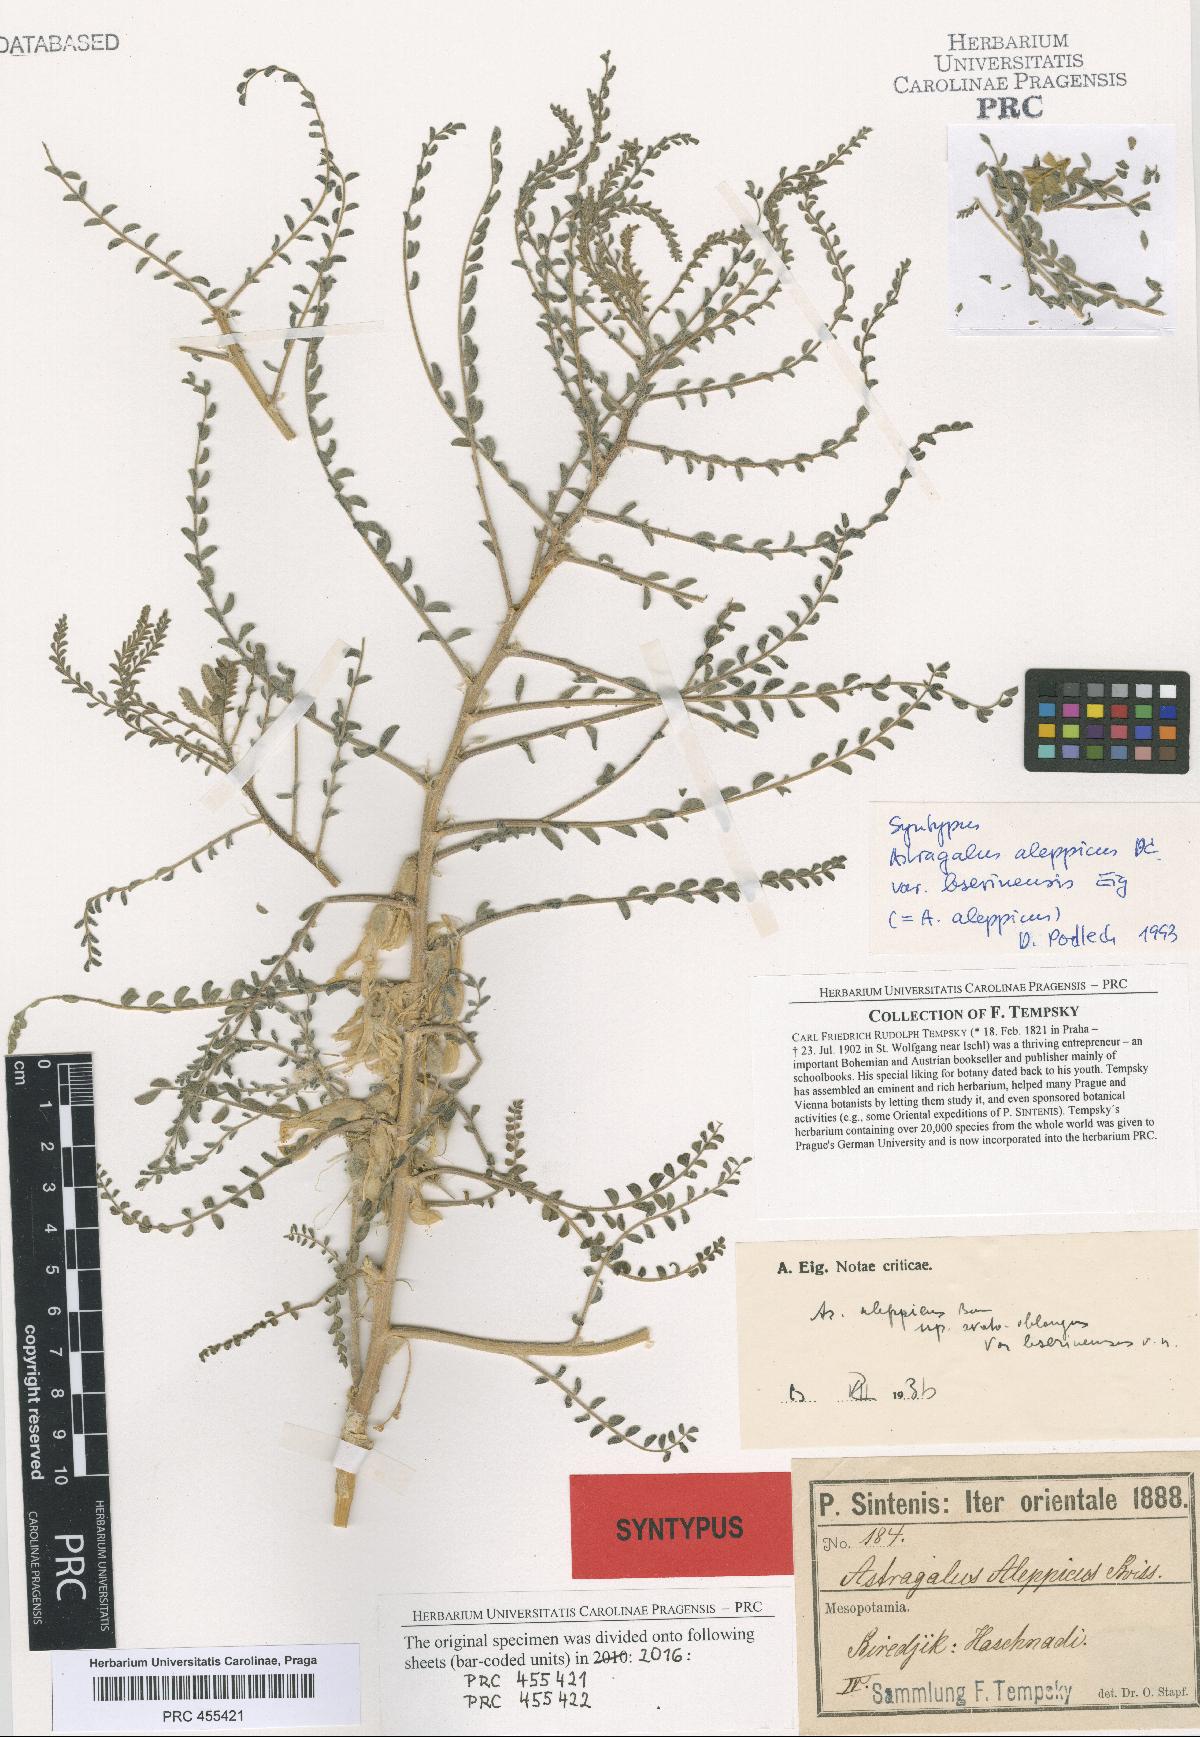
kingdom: Plantae
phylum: Tracheophyta
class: Magnoliopsida
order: Fabales
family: Fabaceae
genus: Astragalus
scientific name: Astragalus aleppicus
